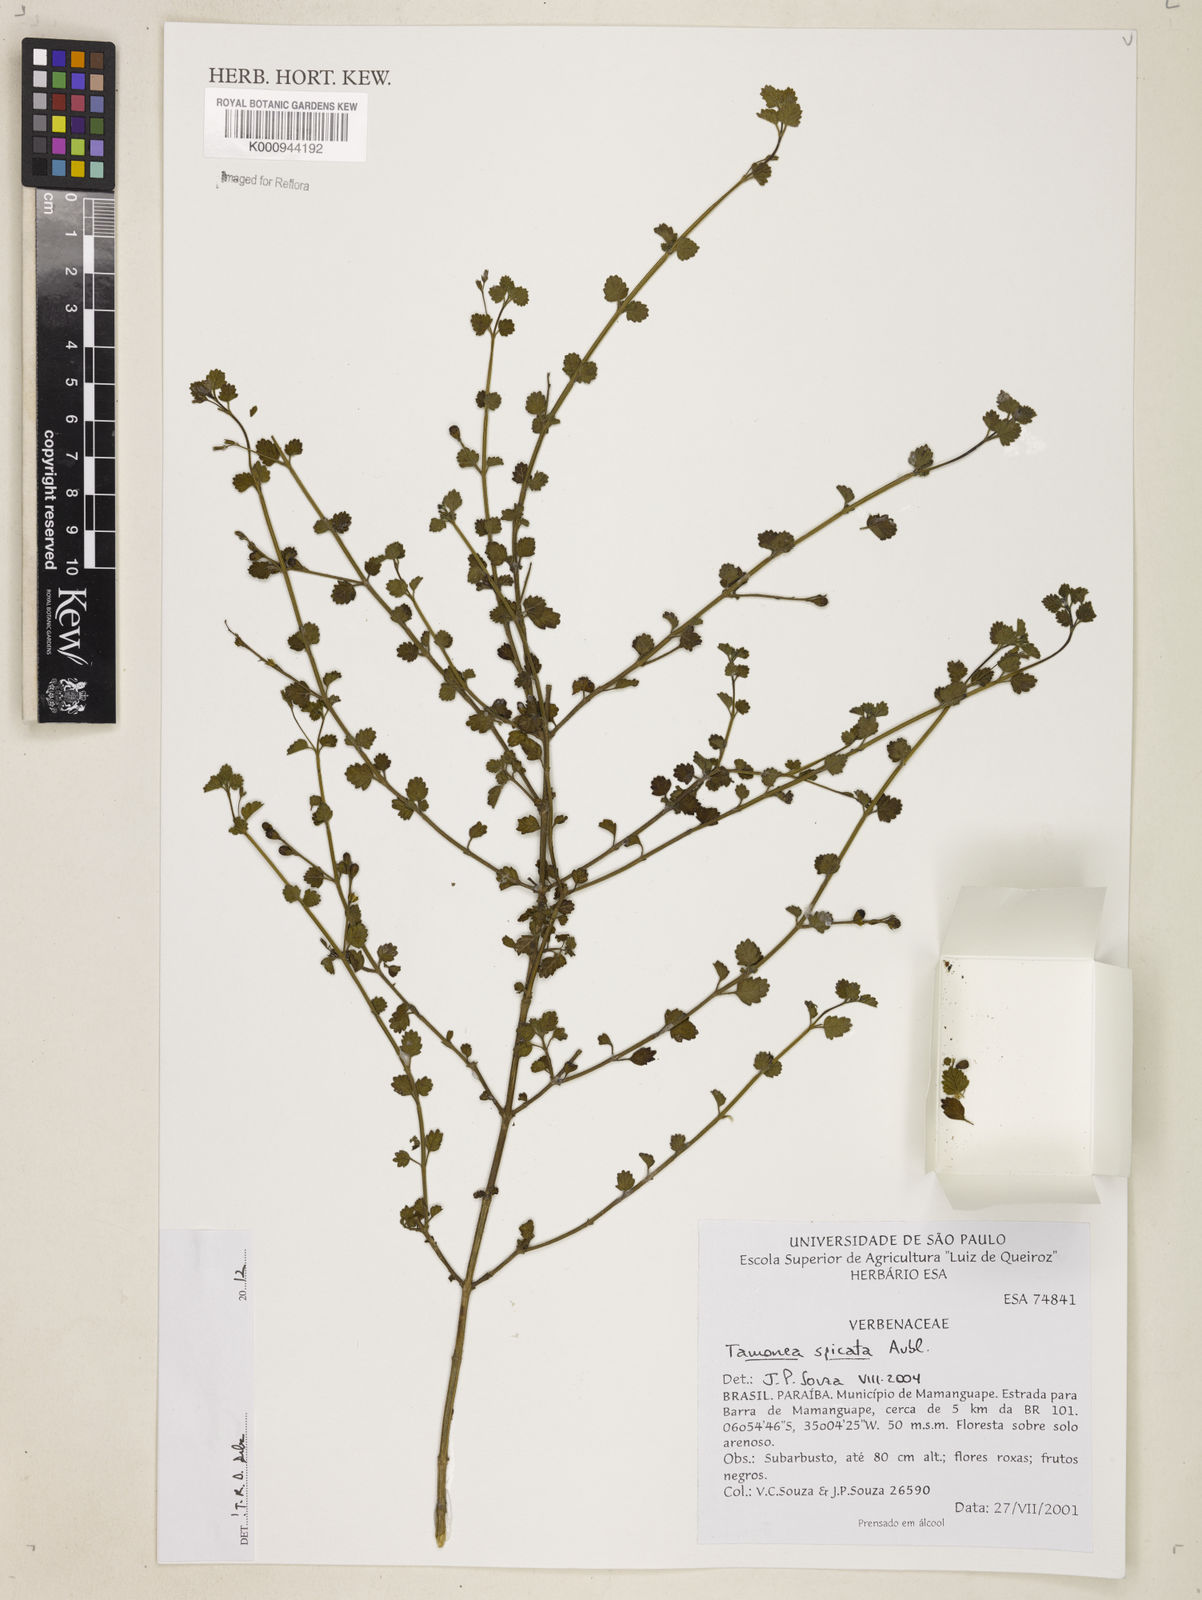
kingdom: Plantae
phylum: Tracheophyta
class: Magnoliopsida
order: Lamiales
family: Verbenaceae
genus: Tamonea
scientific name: Tamonea spicata
